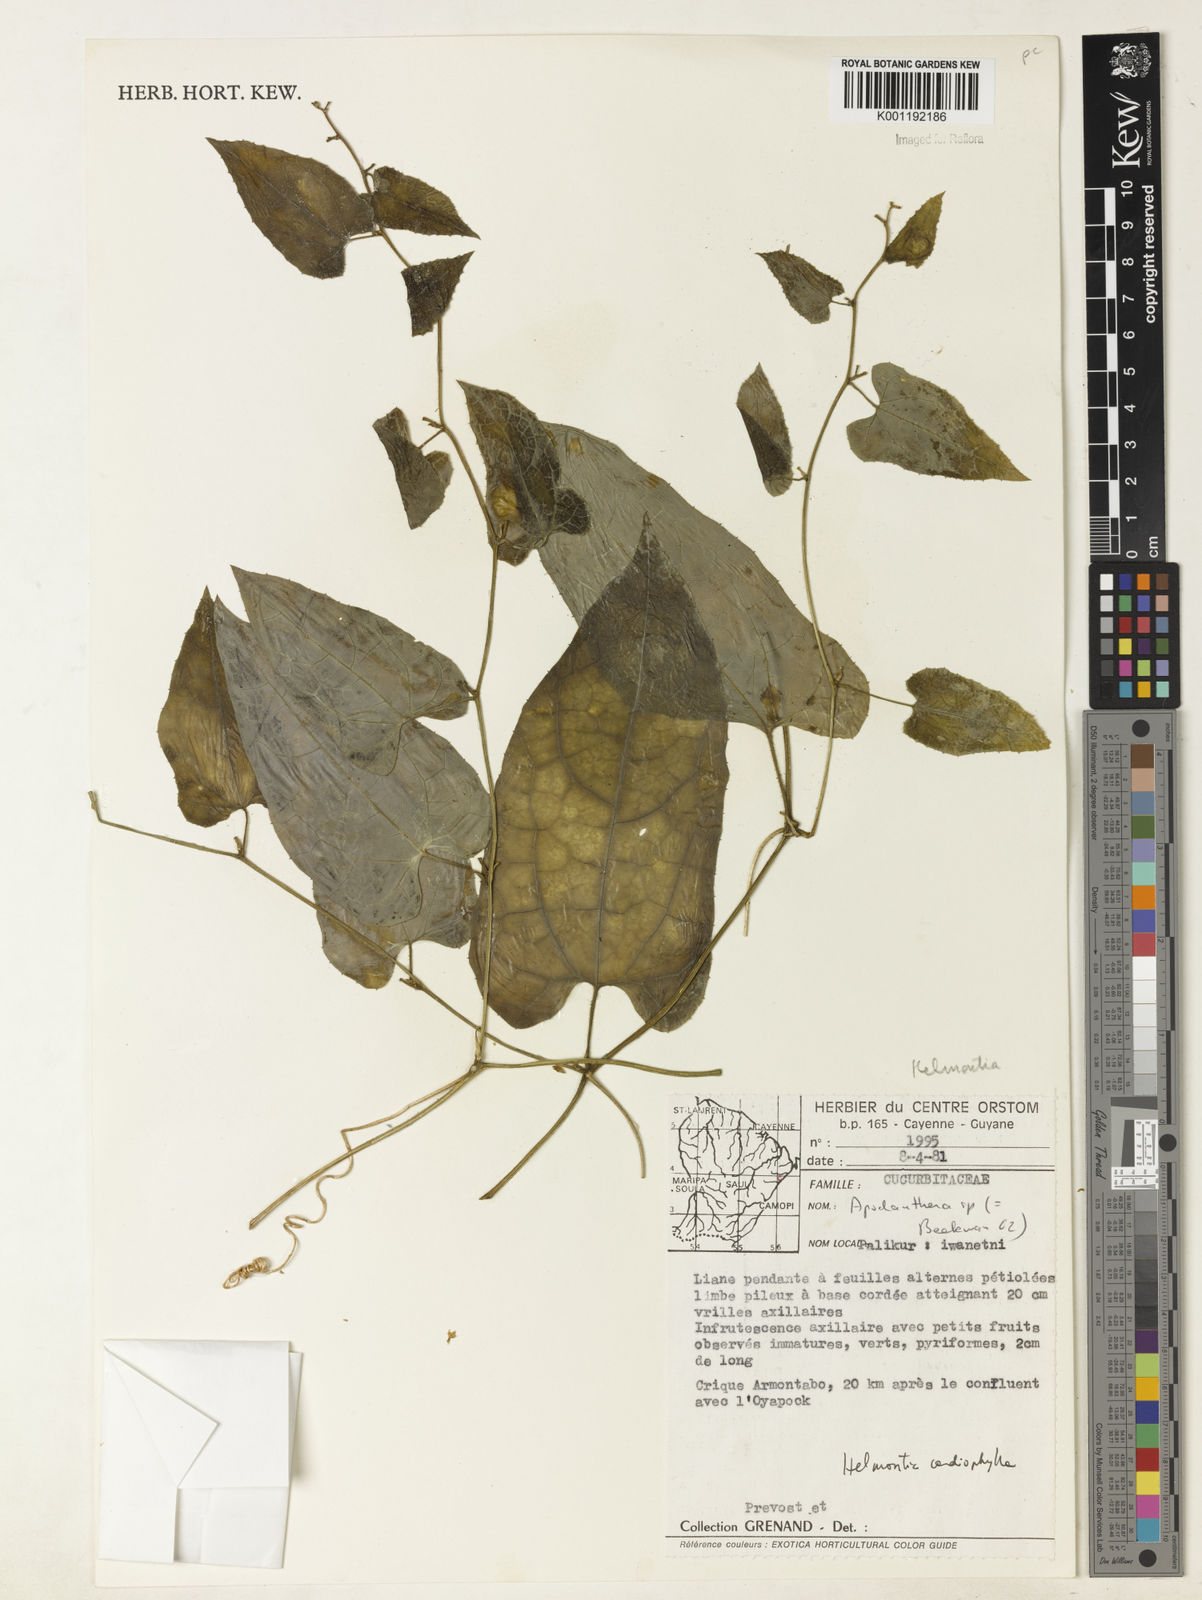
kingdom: Plantae
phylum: Tracheophyta
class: Magnoliopsida
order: Cucurbitales
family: Cucurbitaceae
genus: Helmontia
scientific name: Helmontia cardiophylla
